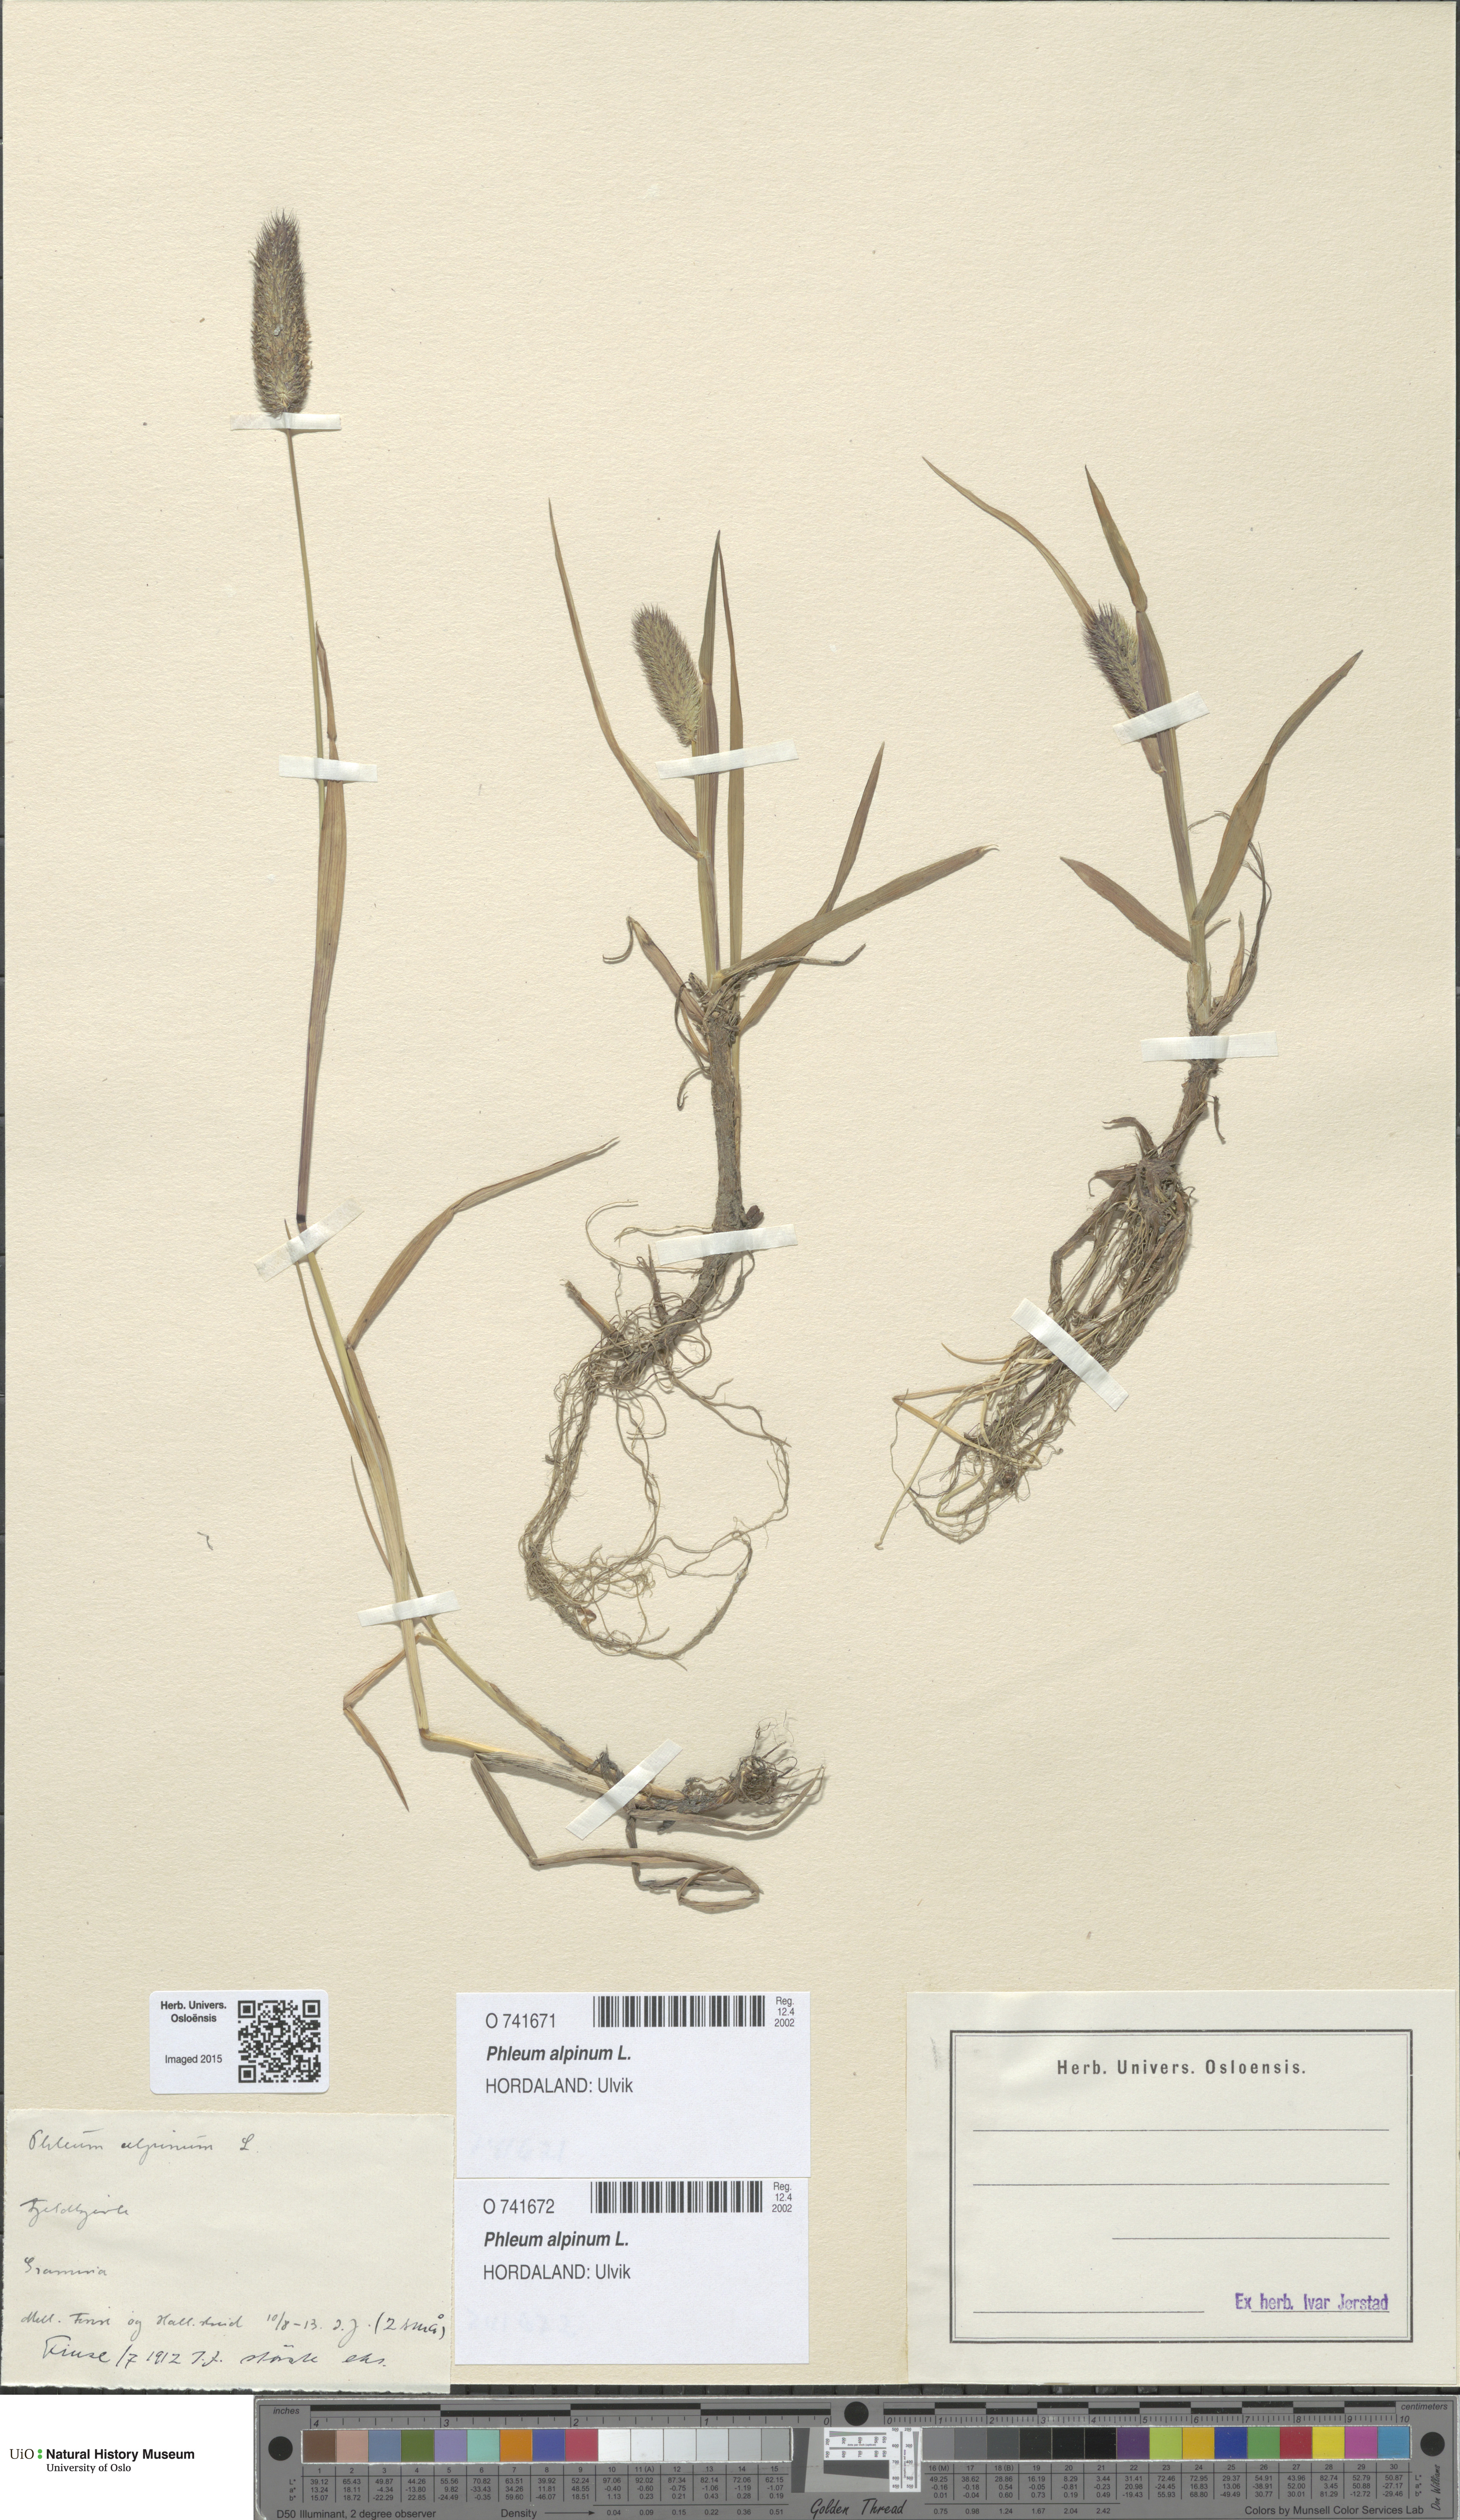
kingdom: Plantae
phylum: Tracheophyta
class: Liliopsida
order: Poales
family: Poaceae
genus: Phleum
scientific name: Phleum alpinum
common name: Alpine cat's-tail
